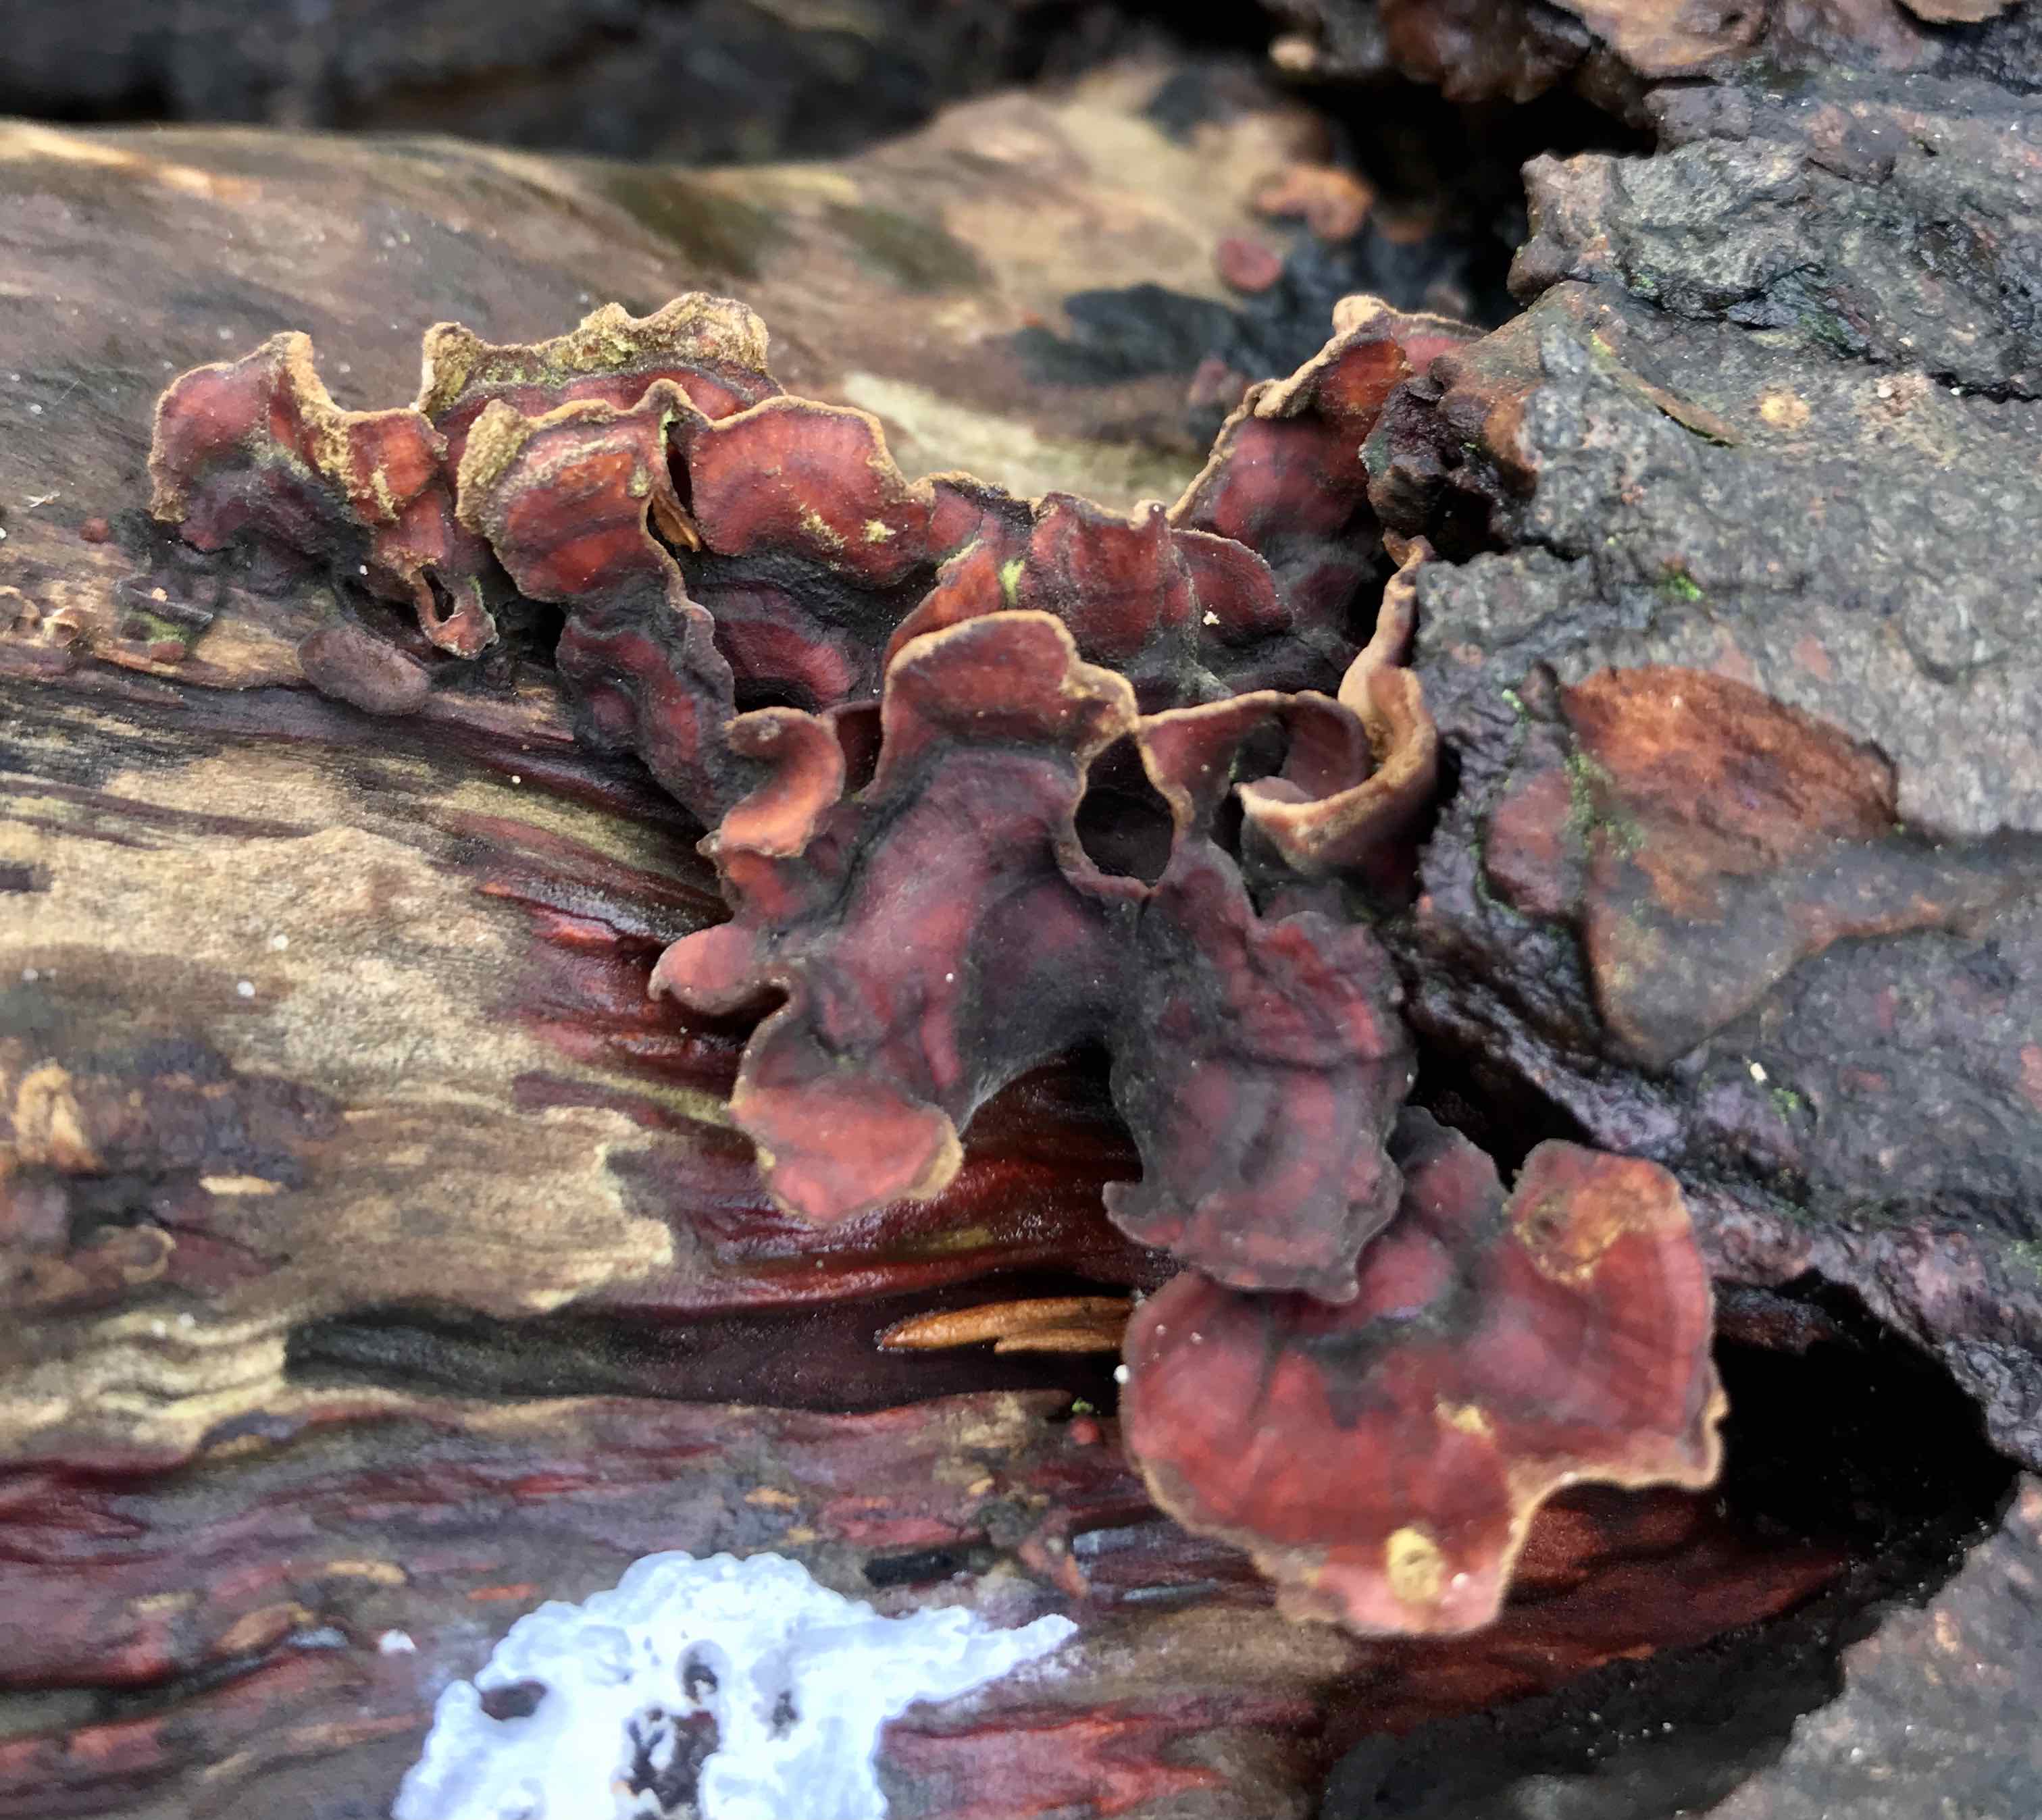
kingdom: Fungi
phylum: Basidiomycota
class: Agaricomycetes
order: Russulales
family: Stereaceae
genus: Stereum
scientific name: Stereum subtomentosum
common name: smuk lædersvamp
